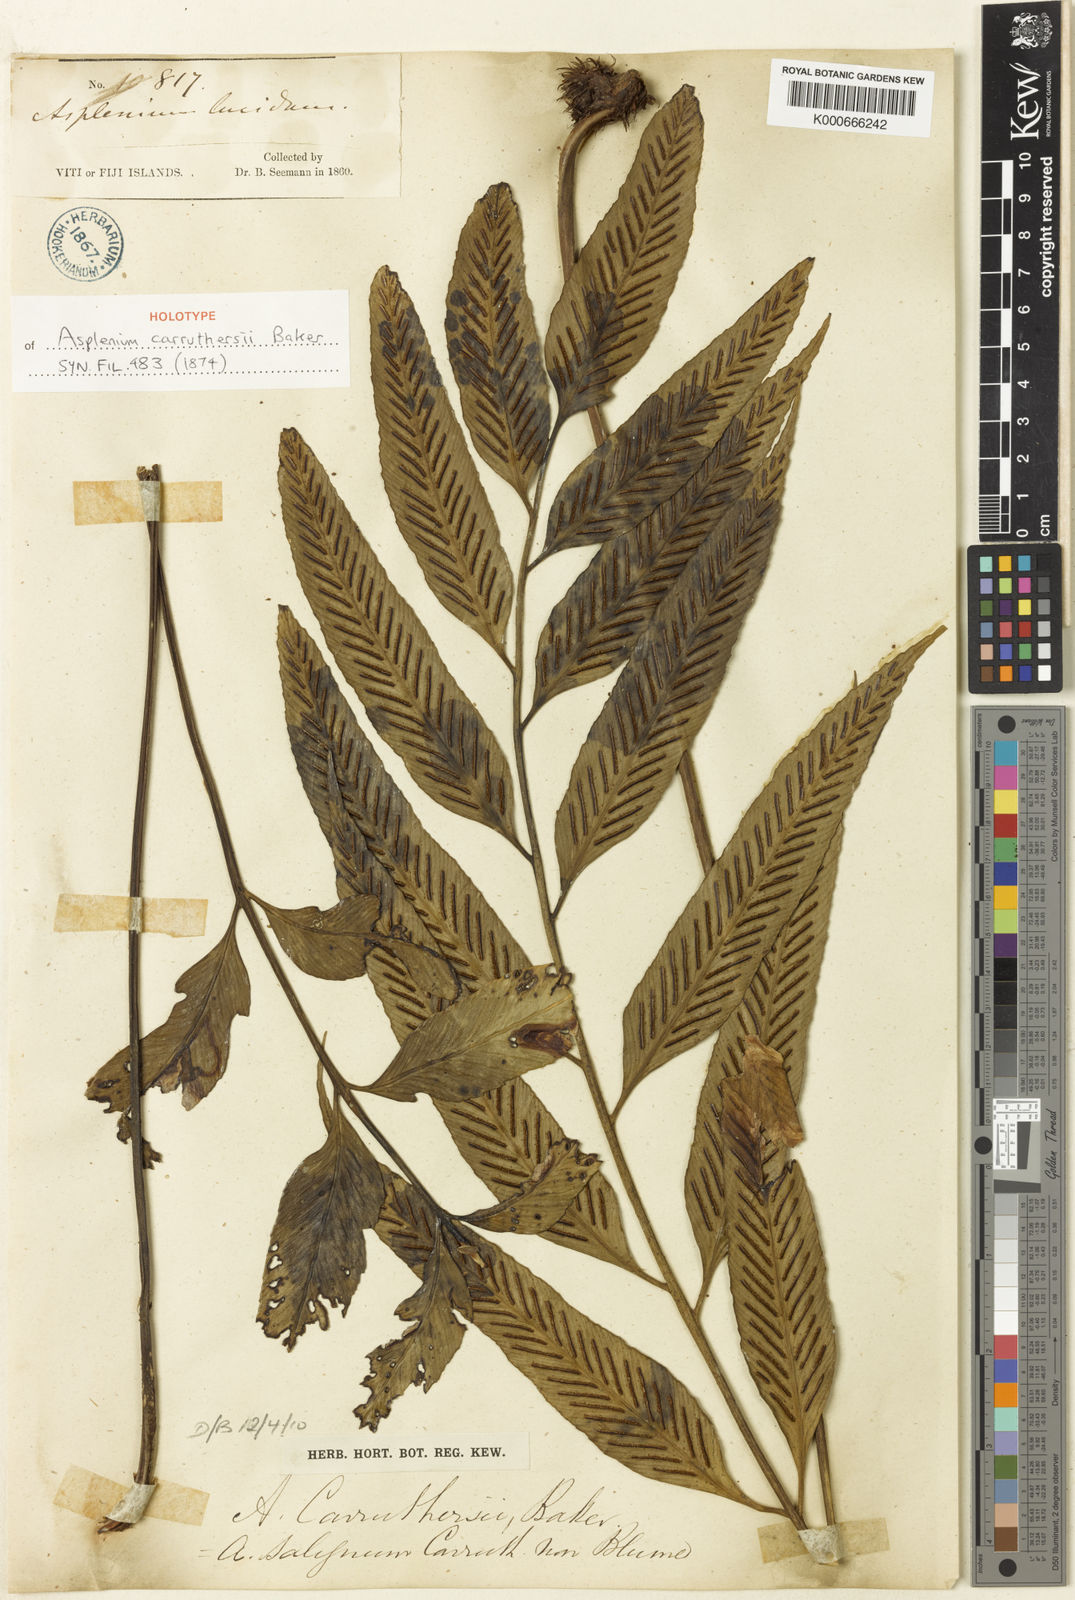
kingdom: Plantae
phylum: Tracheophyta
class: Polypodiopsida
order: Polypodiales
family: Aspleniaceae
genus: Asplenium
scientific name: Asplenium carruthersii
